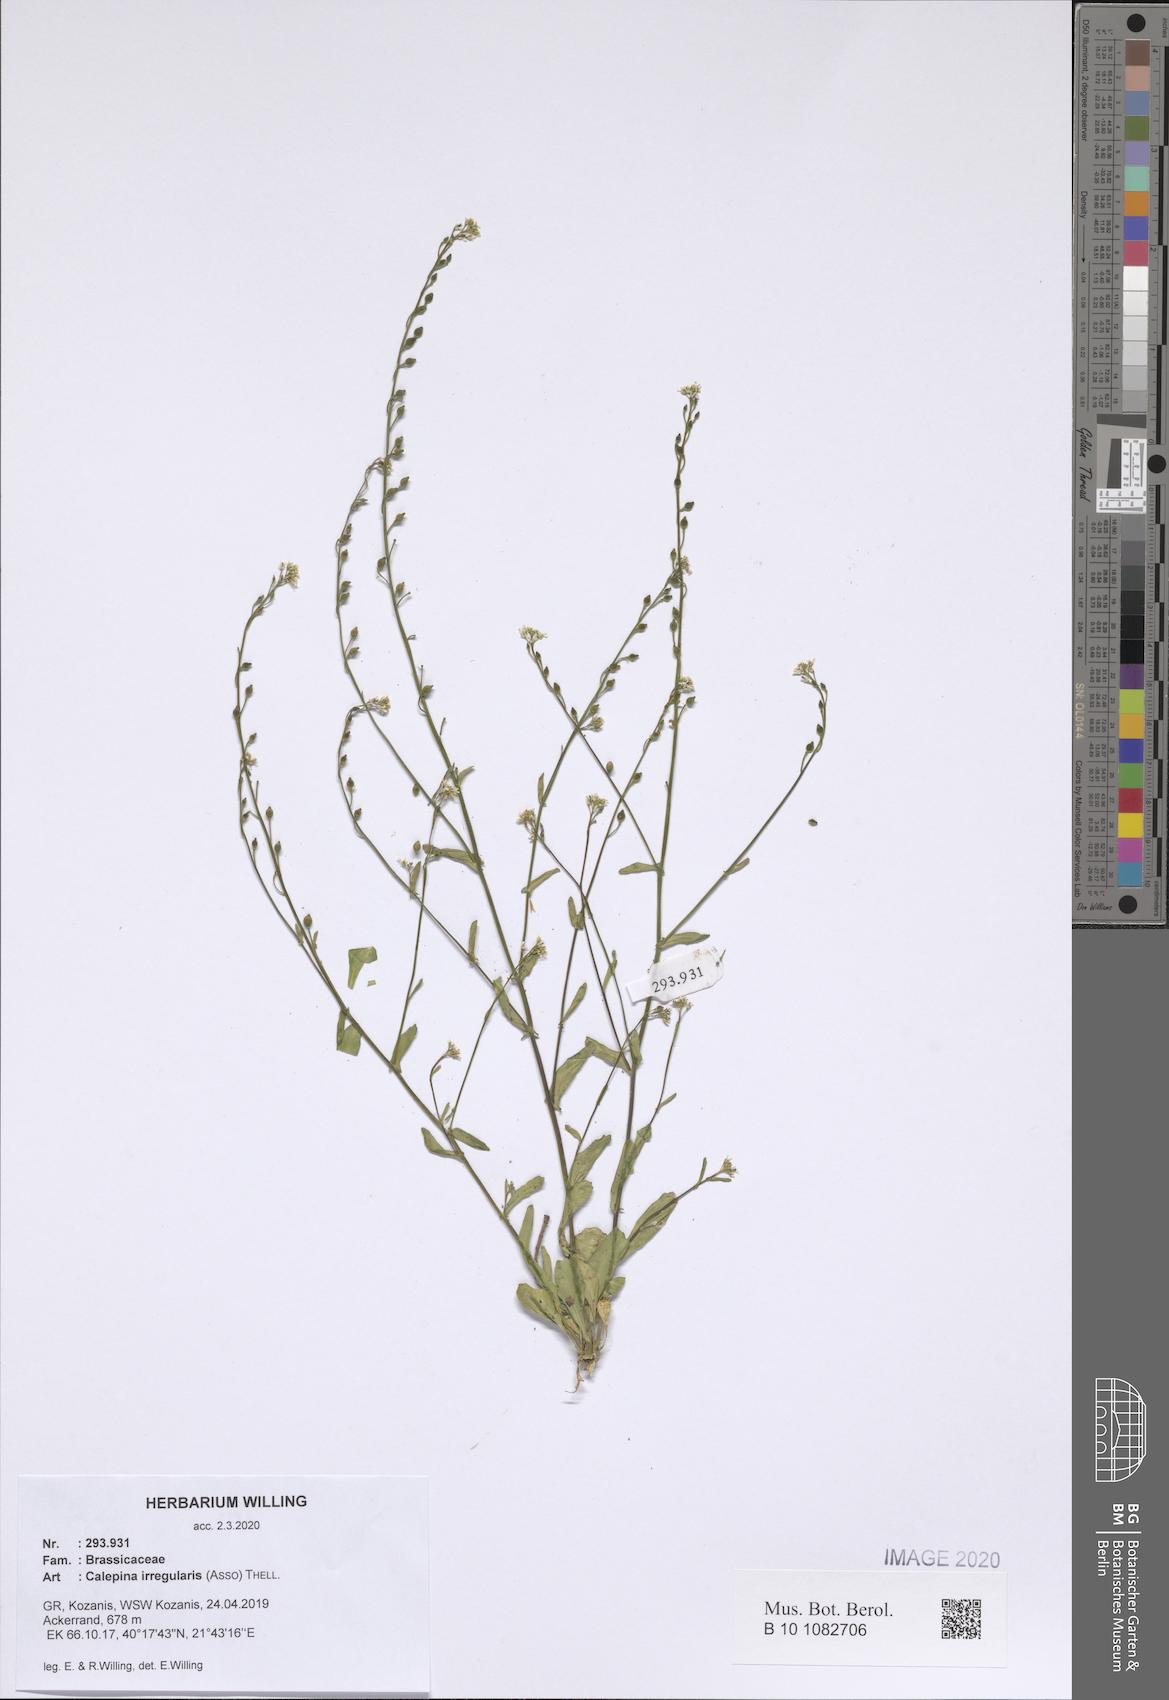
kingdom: Plantae
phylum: Tracheophyta
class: Magnoliopsida
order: Brassicales
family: Brassicaceae
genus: Calepina
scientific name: Calepina irregularis
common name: White ballmustard
